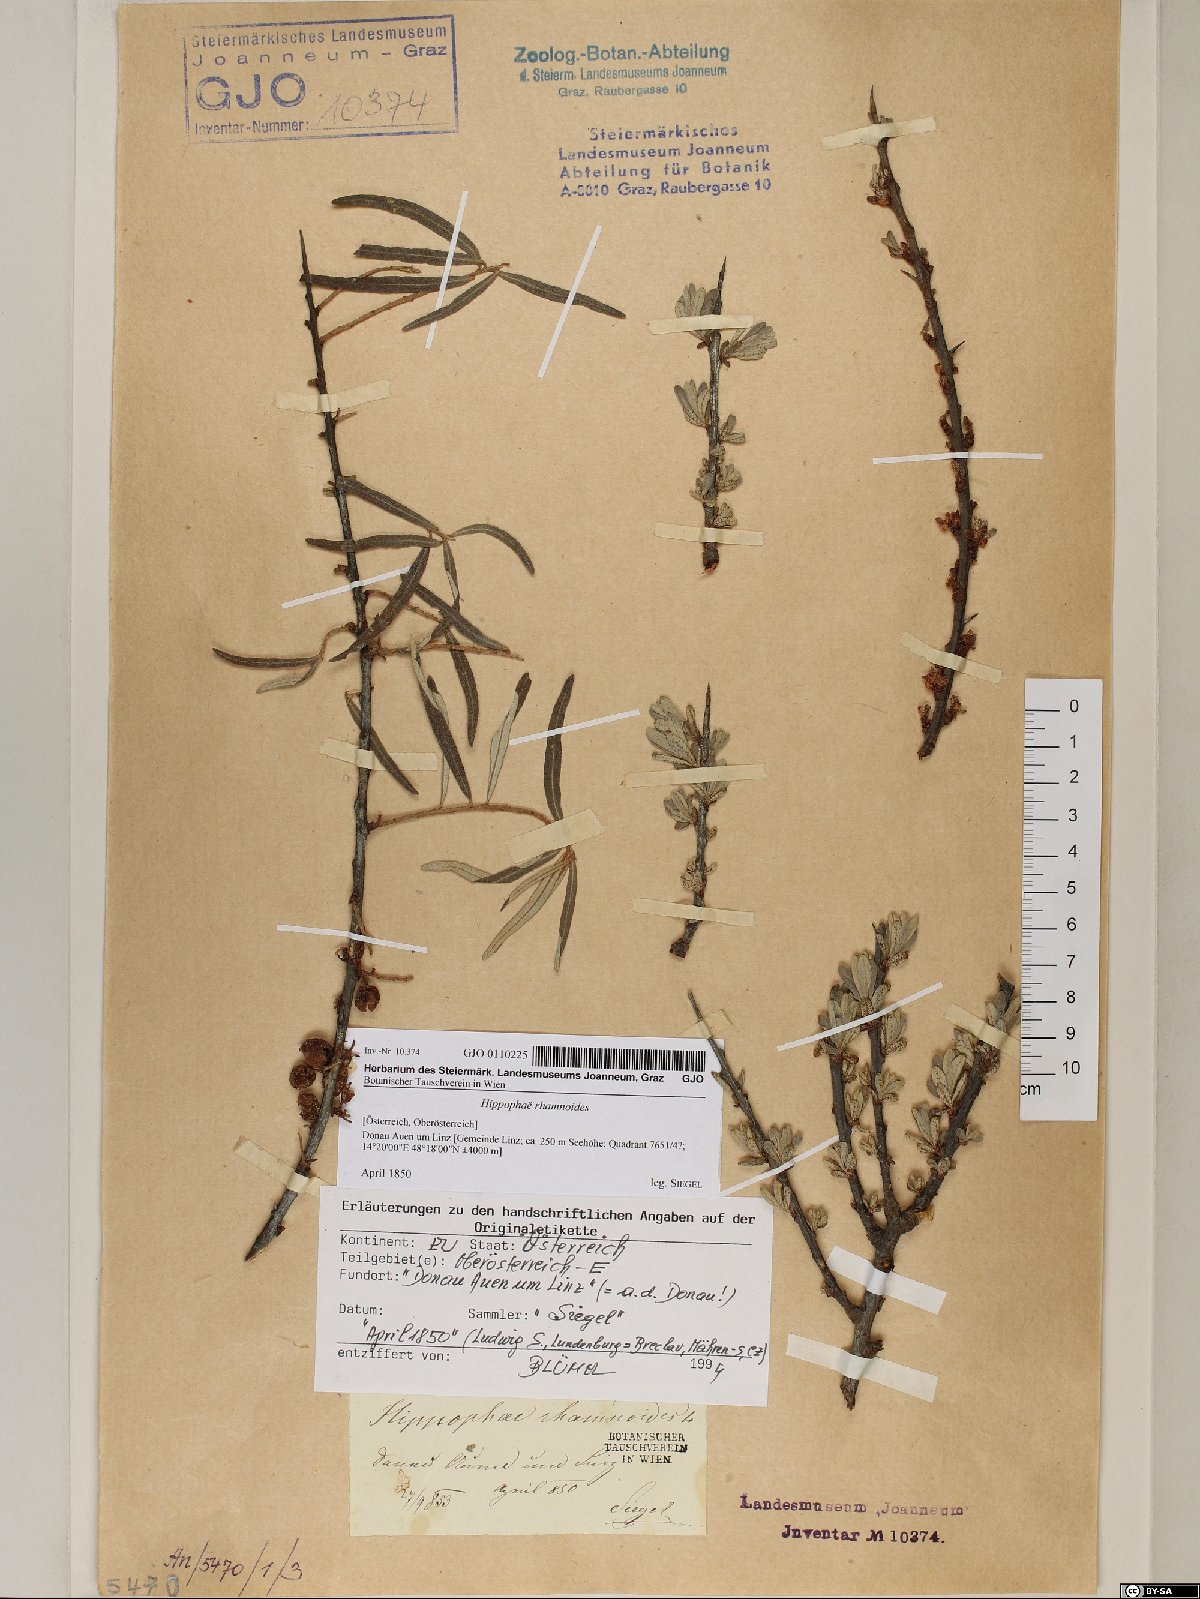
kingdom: Plantae
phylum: Tracheophyta
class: Magnoliopsida
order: Rosales
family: Elaeagnaceae
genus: Hippophae
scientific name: Hippophae rhamnoides
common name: Sea-buckthorn
